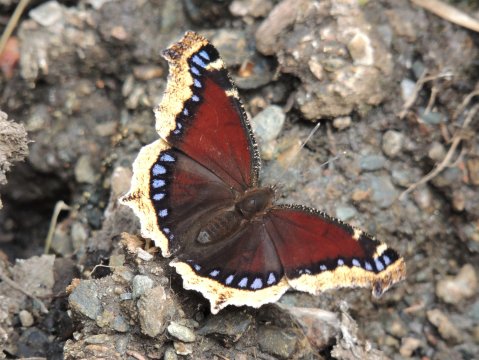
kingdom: Animalia
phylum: Arthropoda
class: Insecta
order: Lepidoptera
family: Nymphalidae
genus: Nymphalis
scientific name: Nymphalis antiopa
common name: Mourning Cloak
